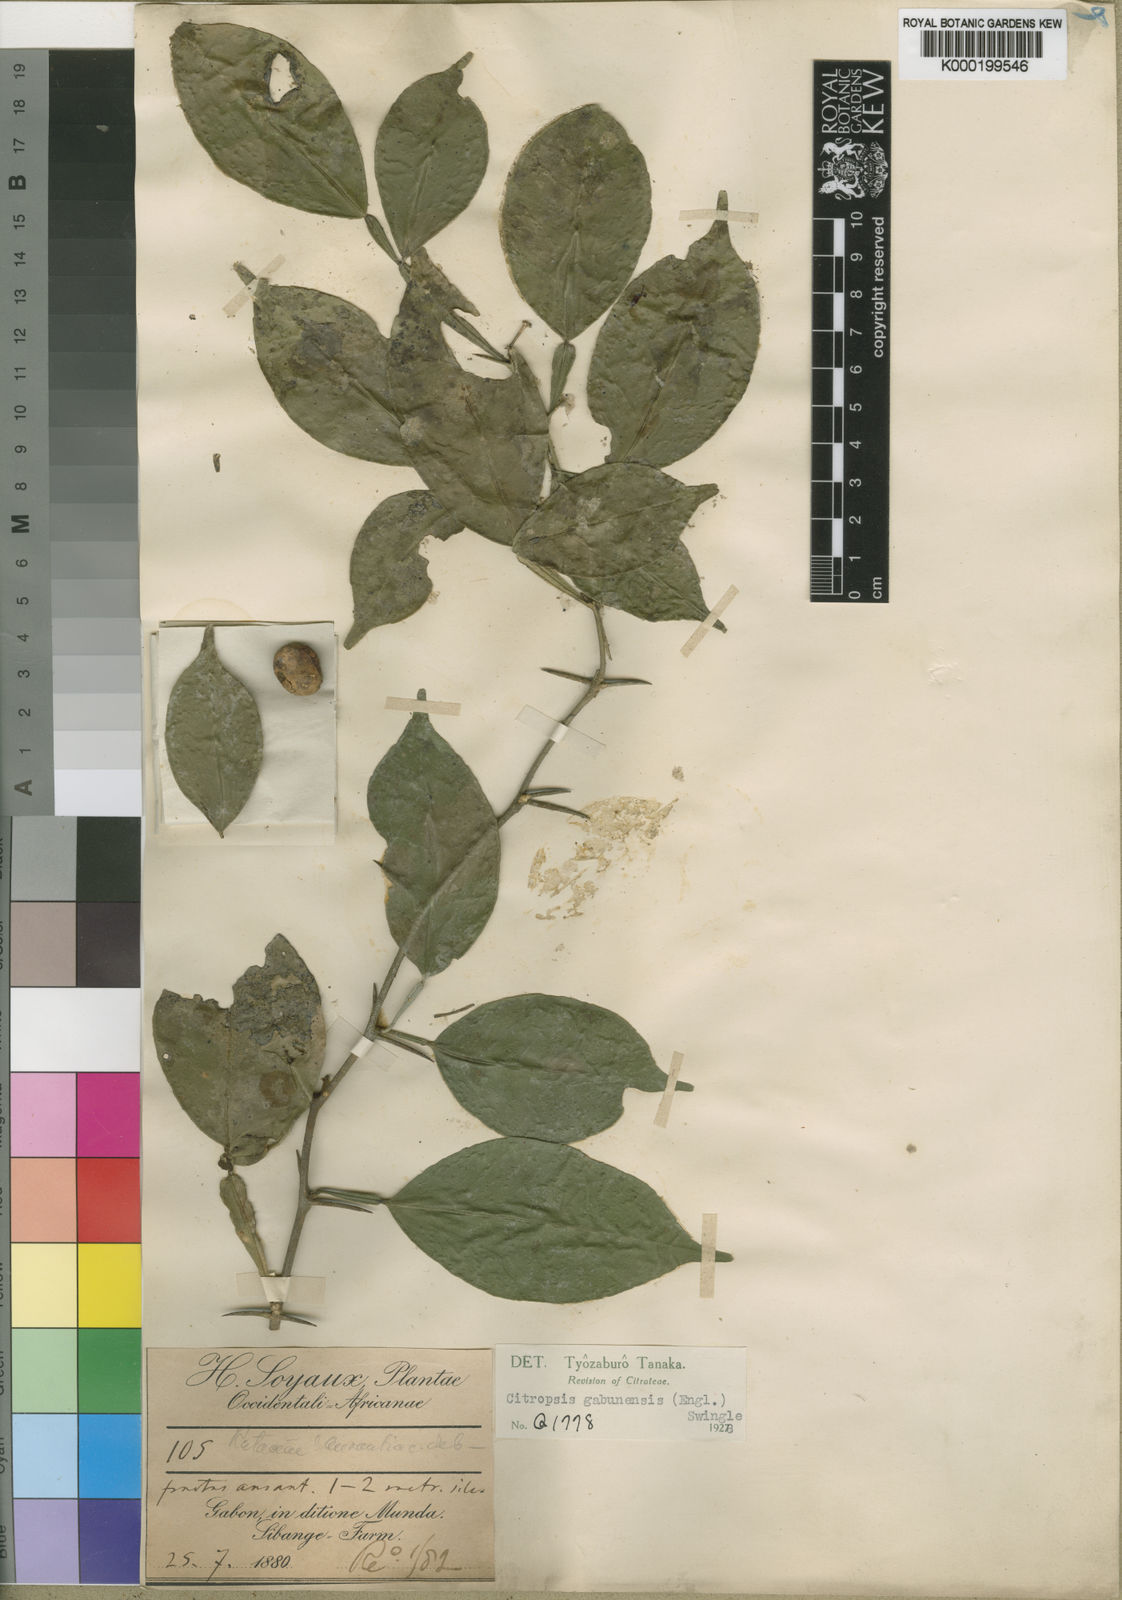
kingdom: Plantae
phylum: Tracheophyta
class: Magnoliopsida
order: Sapindales
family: Rutaceae
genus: Citropsis
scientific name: Citropsis gabunensis
